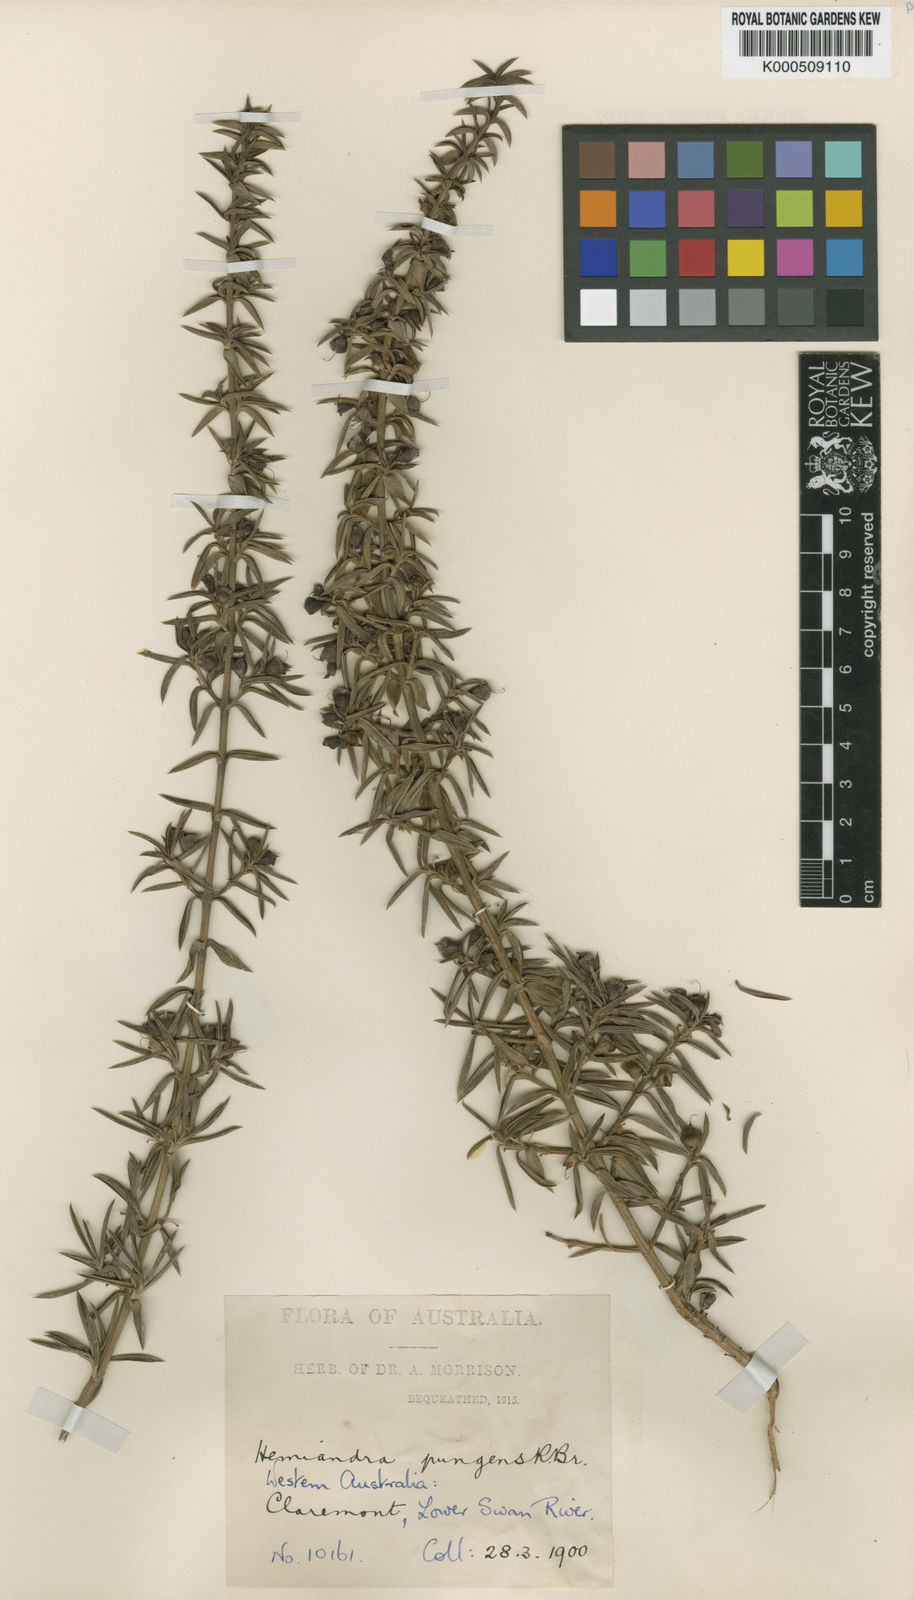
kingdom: Plantae
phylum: Tracheophyta
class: Magnoliopsida
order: Lamiales
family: Lamiaceae
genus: Hemiandra
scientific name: Hemiandra pungens
